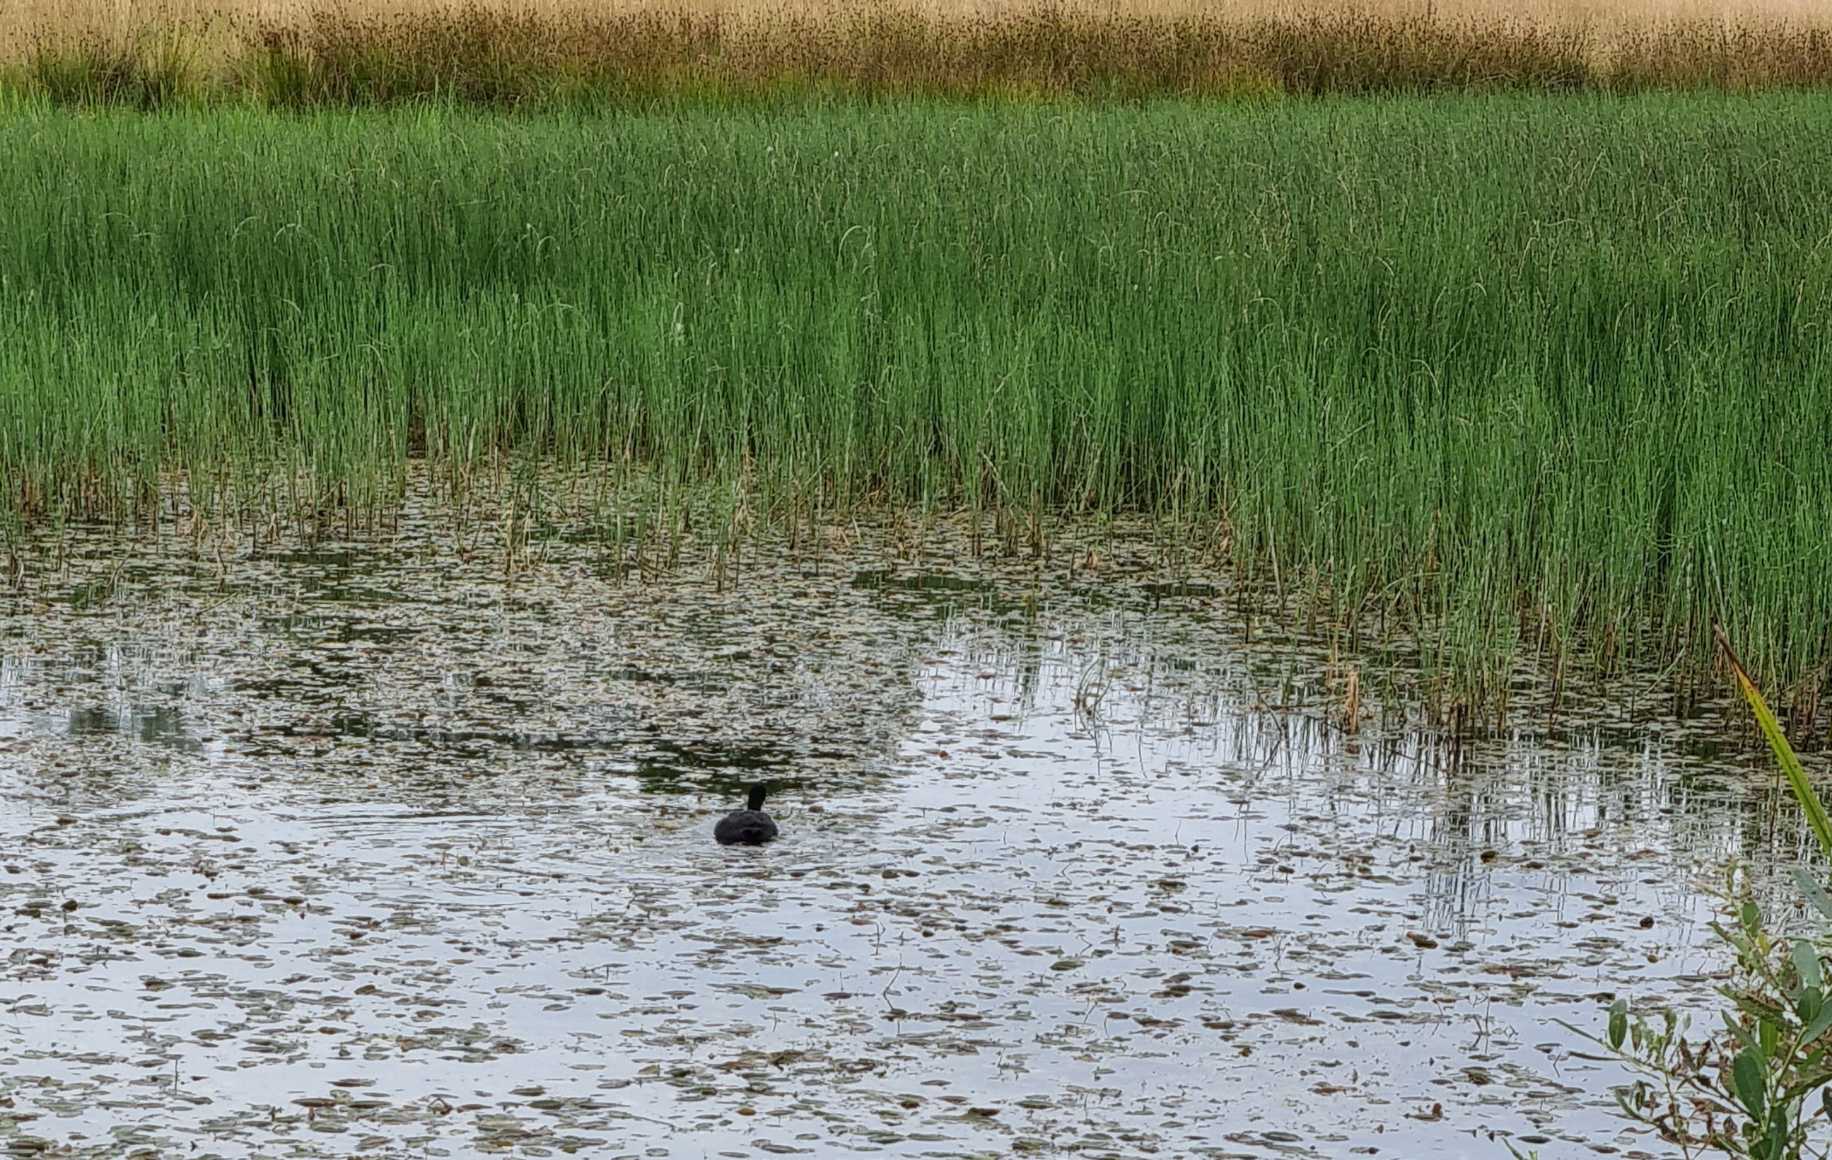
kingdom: Animalia
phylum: Chordata
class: Aves
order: Gruiformes
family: Rallidae
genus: Fulica
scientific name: Fulica atra
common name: Blishøne
